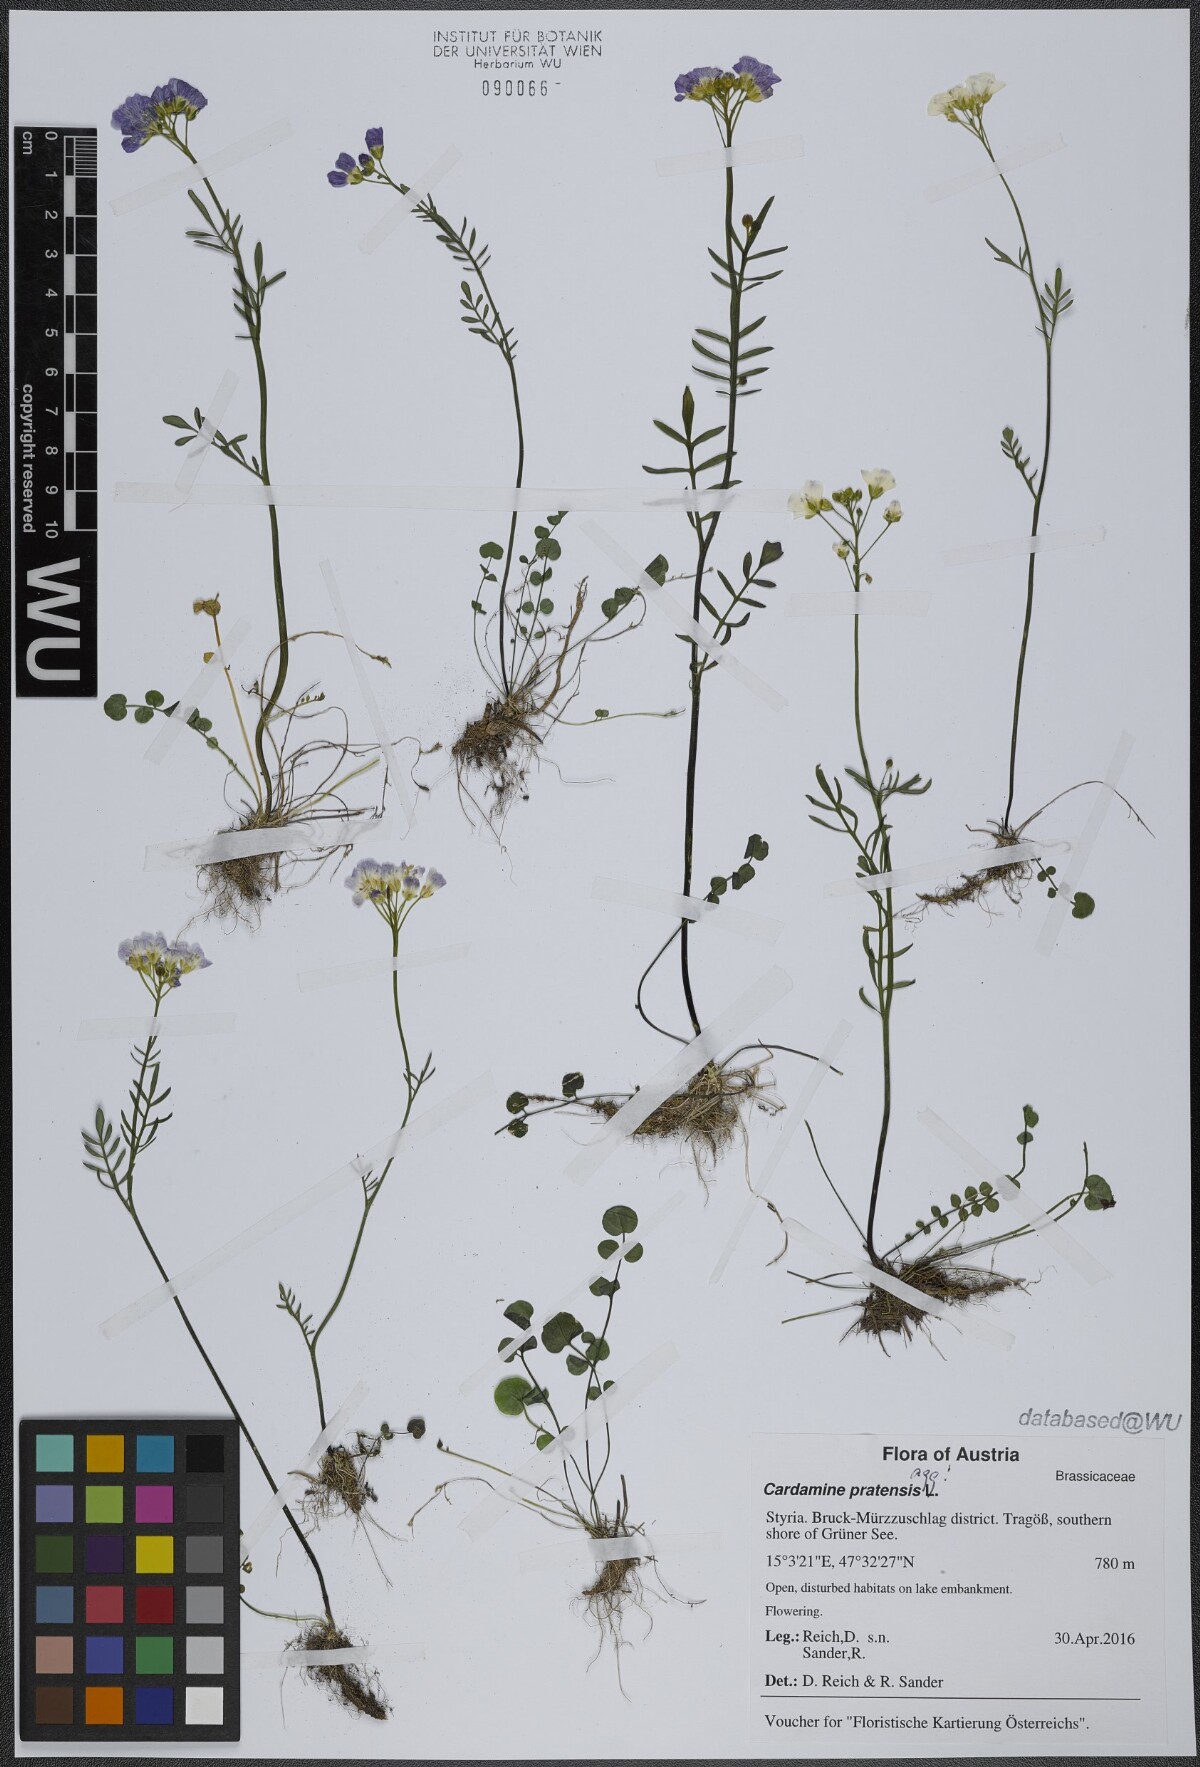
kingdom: Plantae
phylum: Tracheophyta
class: Magnoliopsida
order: Brassicales
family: Brassicaceae
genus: Cardamine
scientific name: Cardamine pratensis
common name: Cuckoo flower
